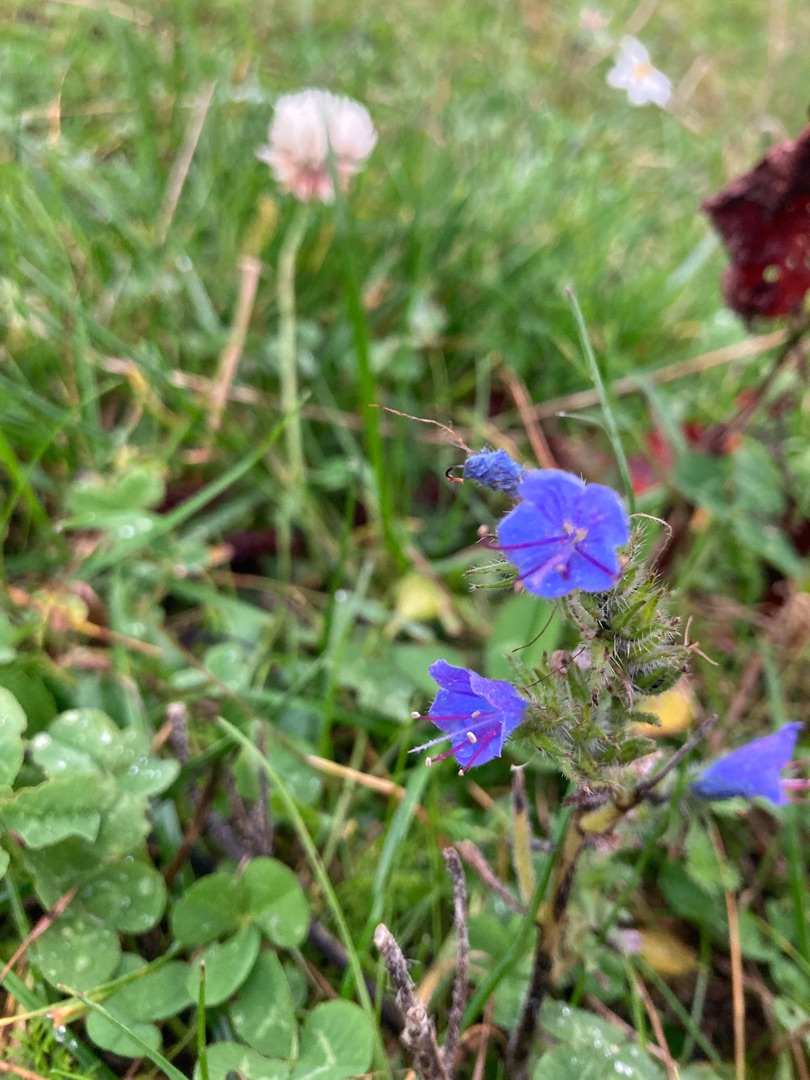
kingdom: Plantae
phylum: Tracheophyta
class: Magnoliopsida
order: Boraginales
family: Boraginaceae
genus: Echium
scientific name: Echium vulgare
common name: Slangehoved
